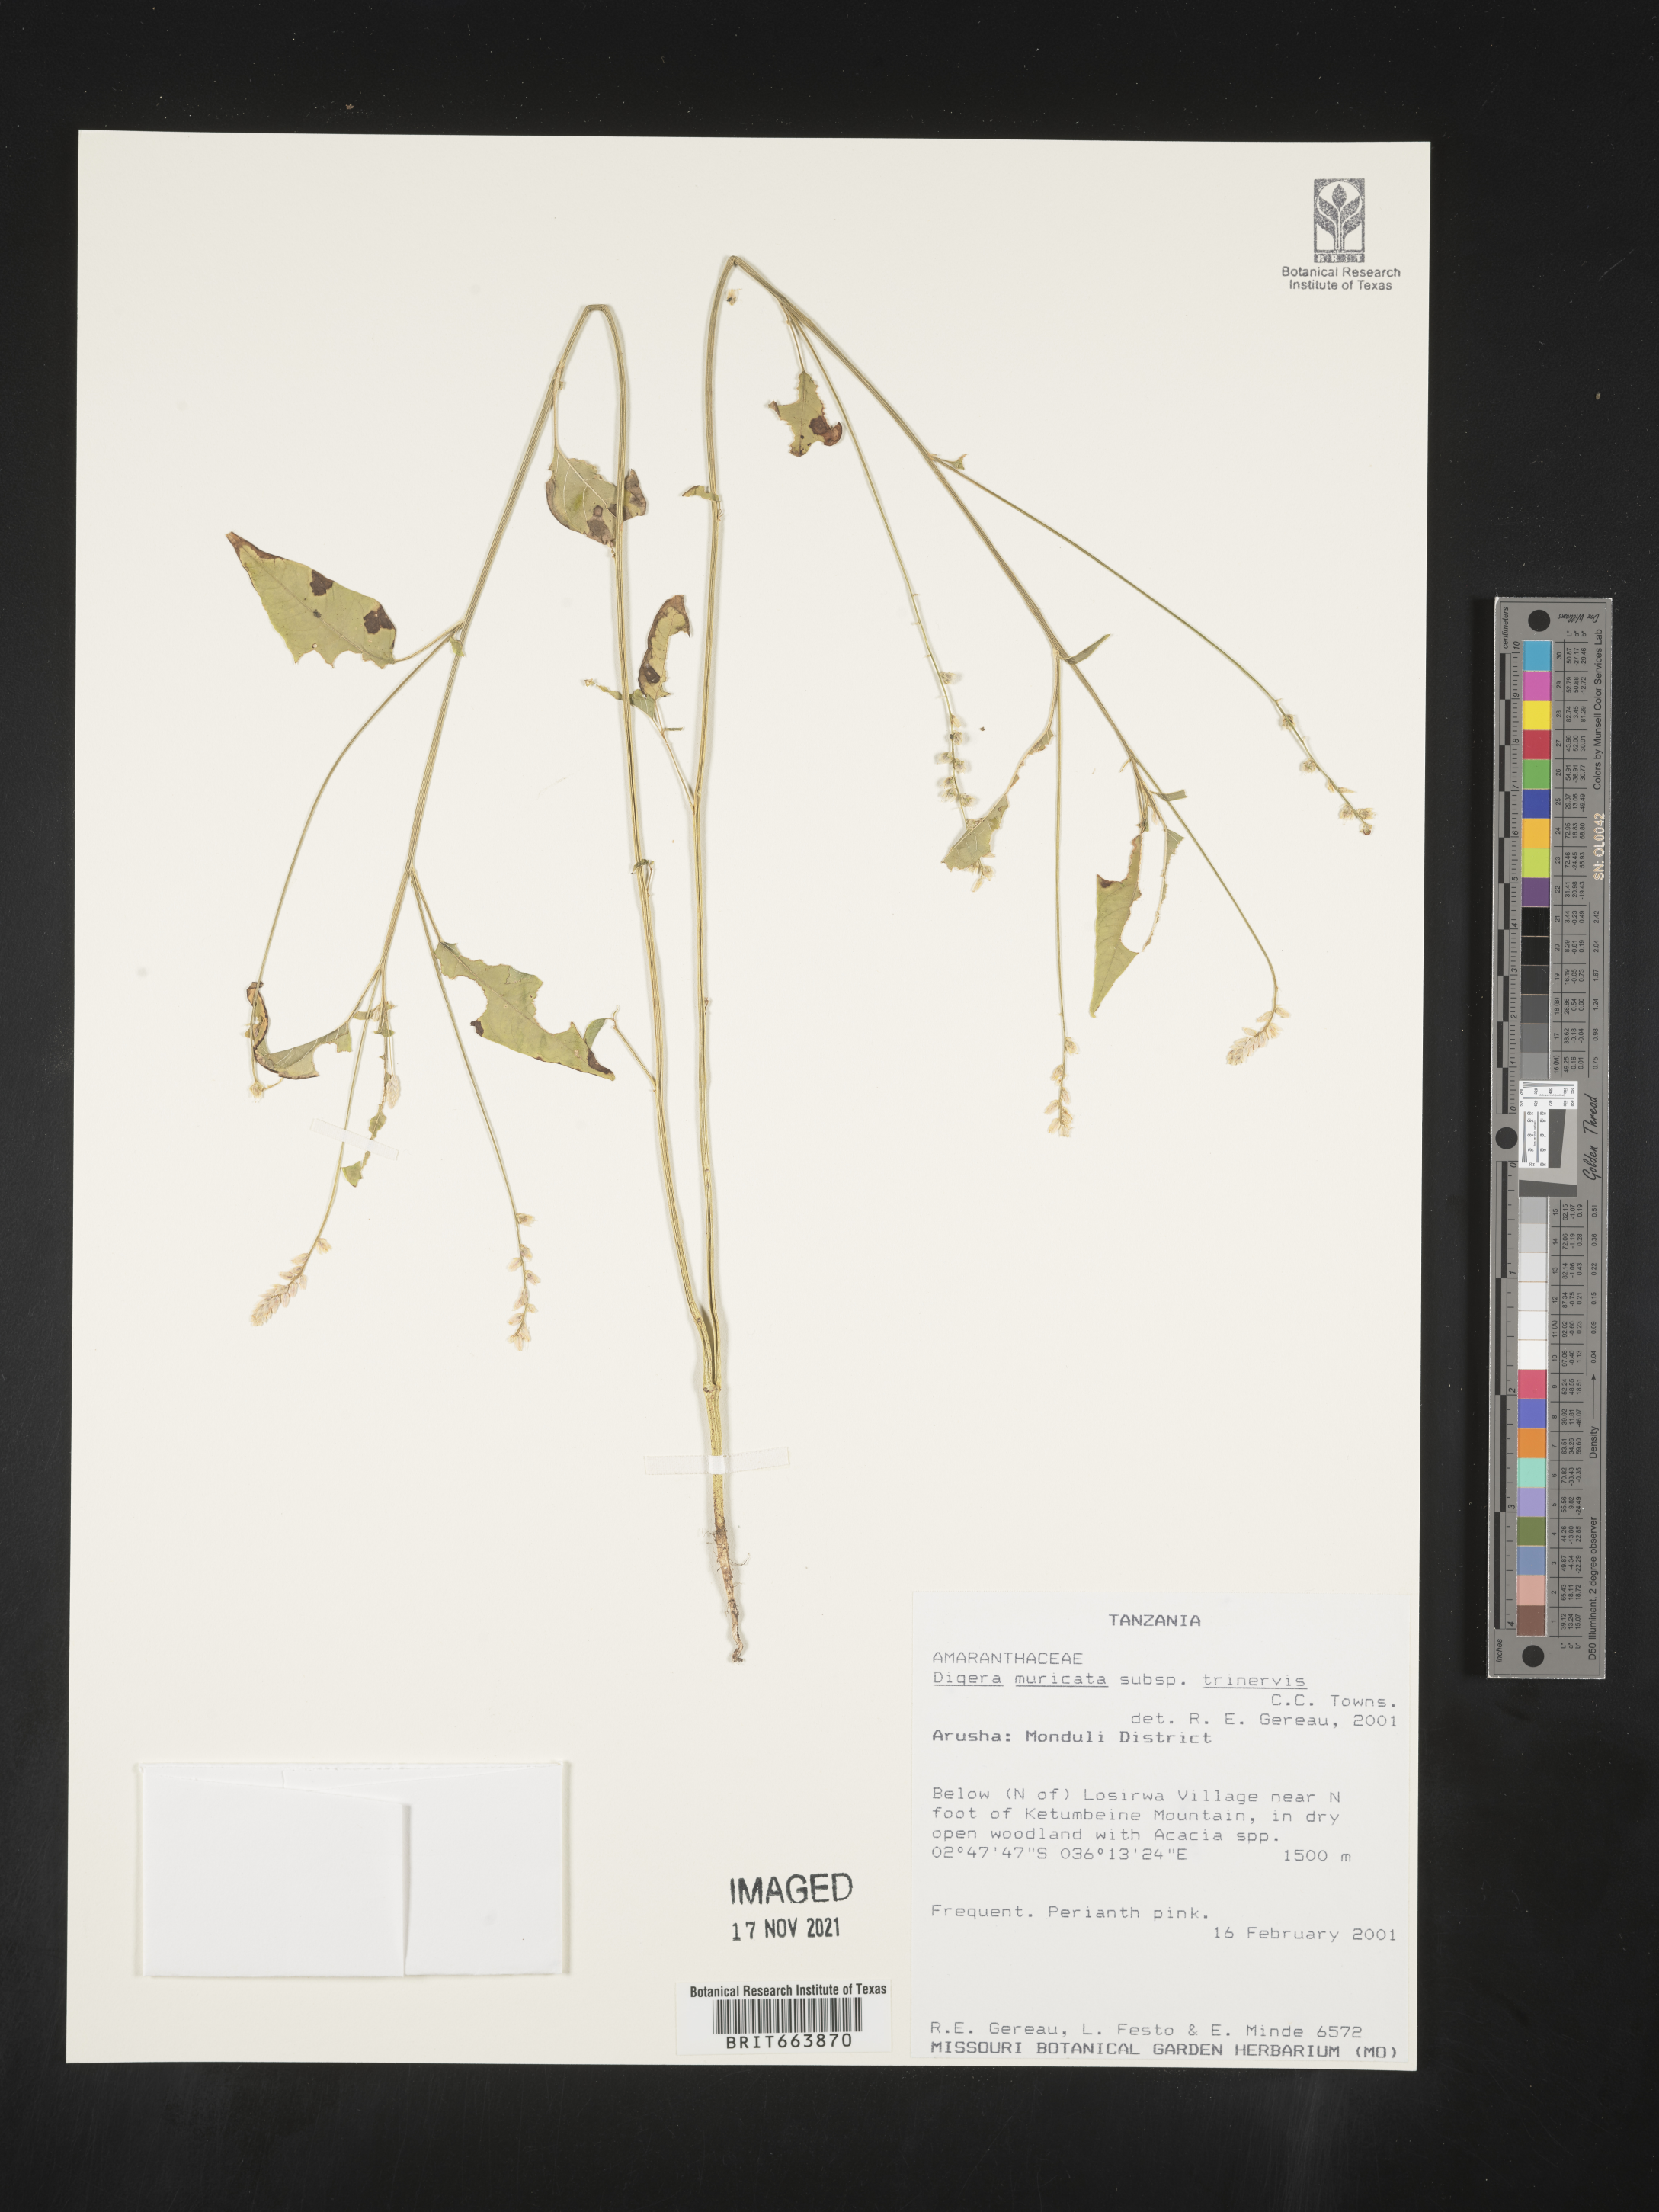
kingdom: Plantae
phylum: Tracheophyta
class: Magnoliopsida
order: Caryophyllales
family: Amaranthaceae
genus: Digera
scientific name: Digera
